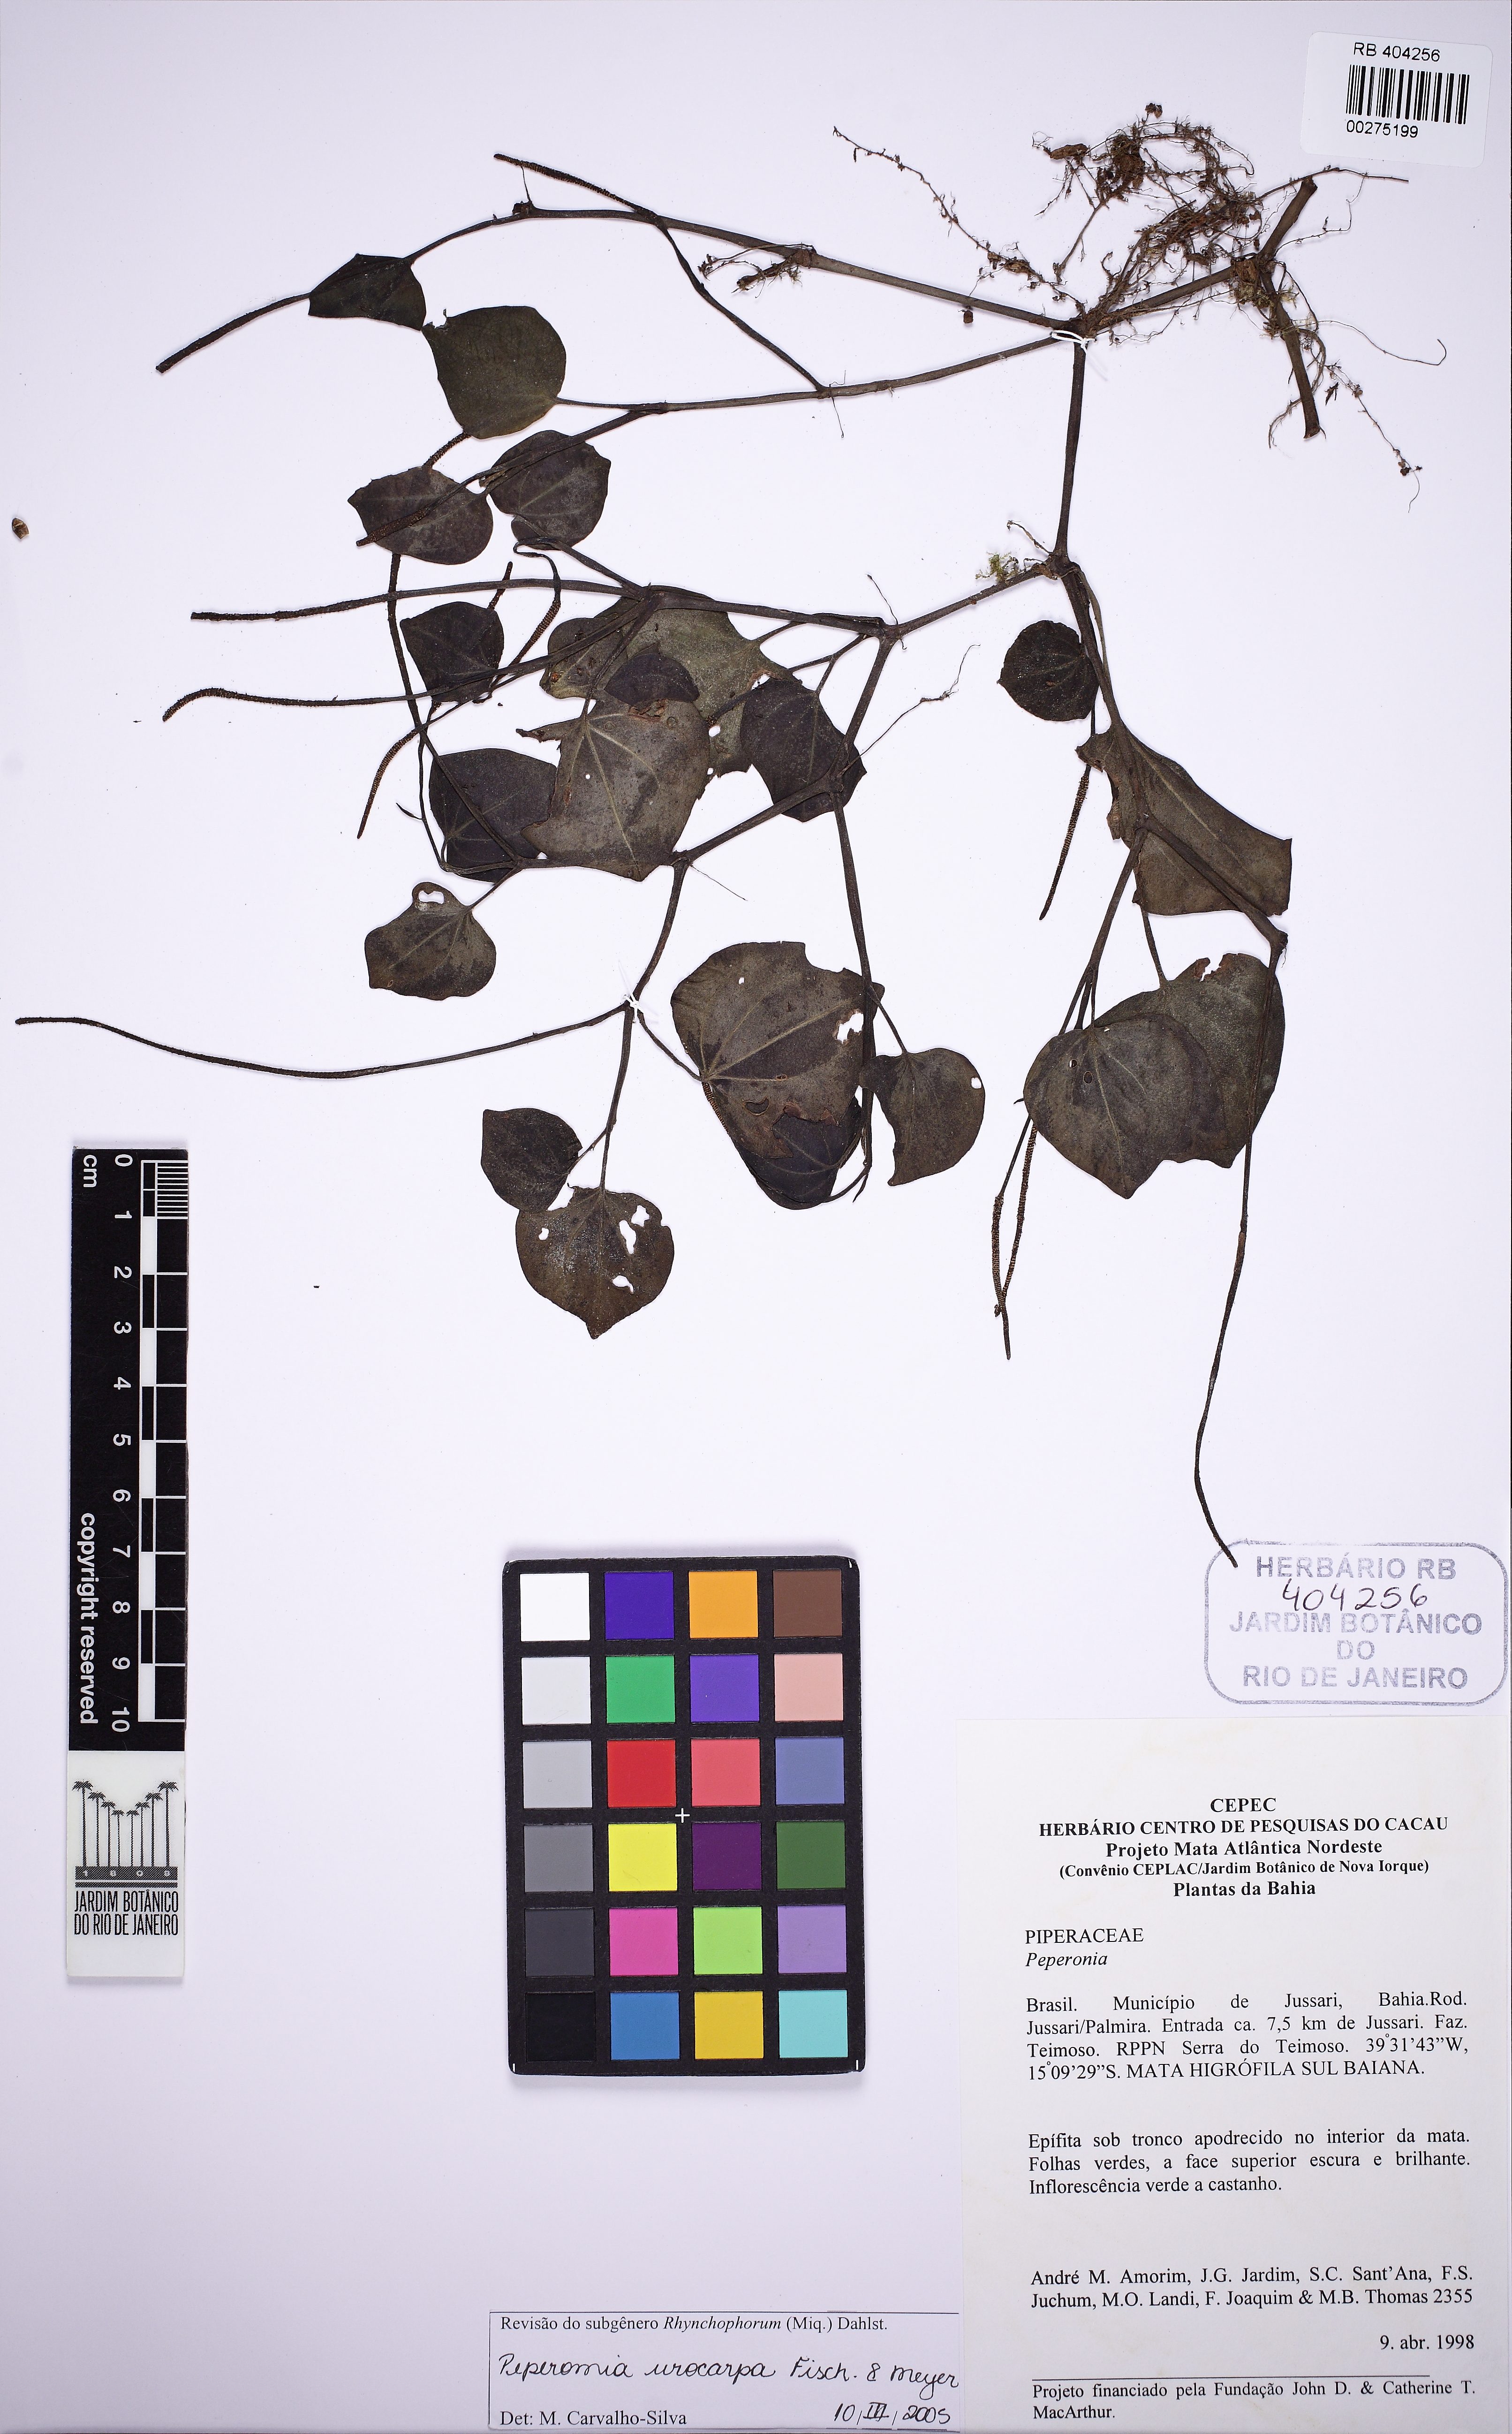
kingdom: Plantae
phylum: Tracheophyta
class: Magnoliopsida
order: Piperales
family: Piperaceae
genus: Peperomia
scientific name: Peperomia urocarpa
